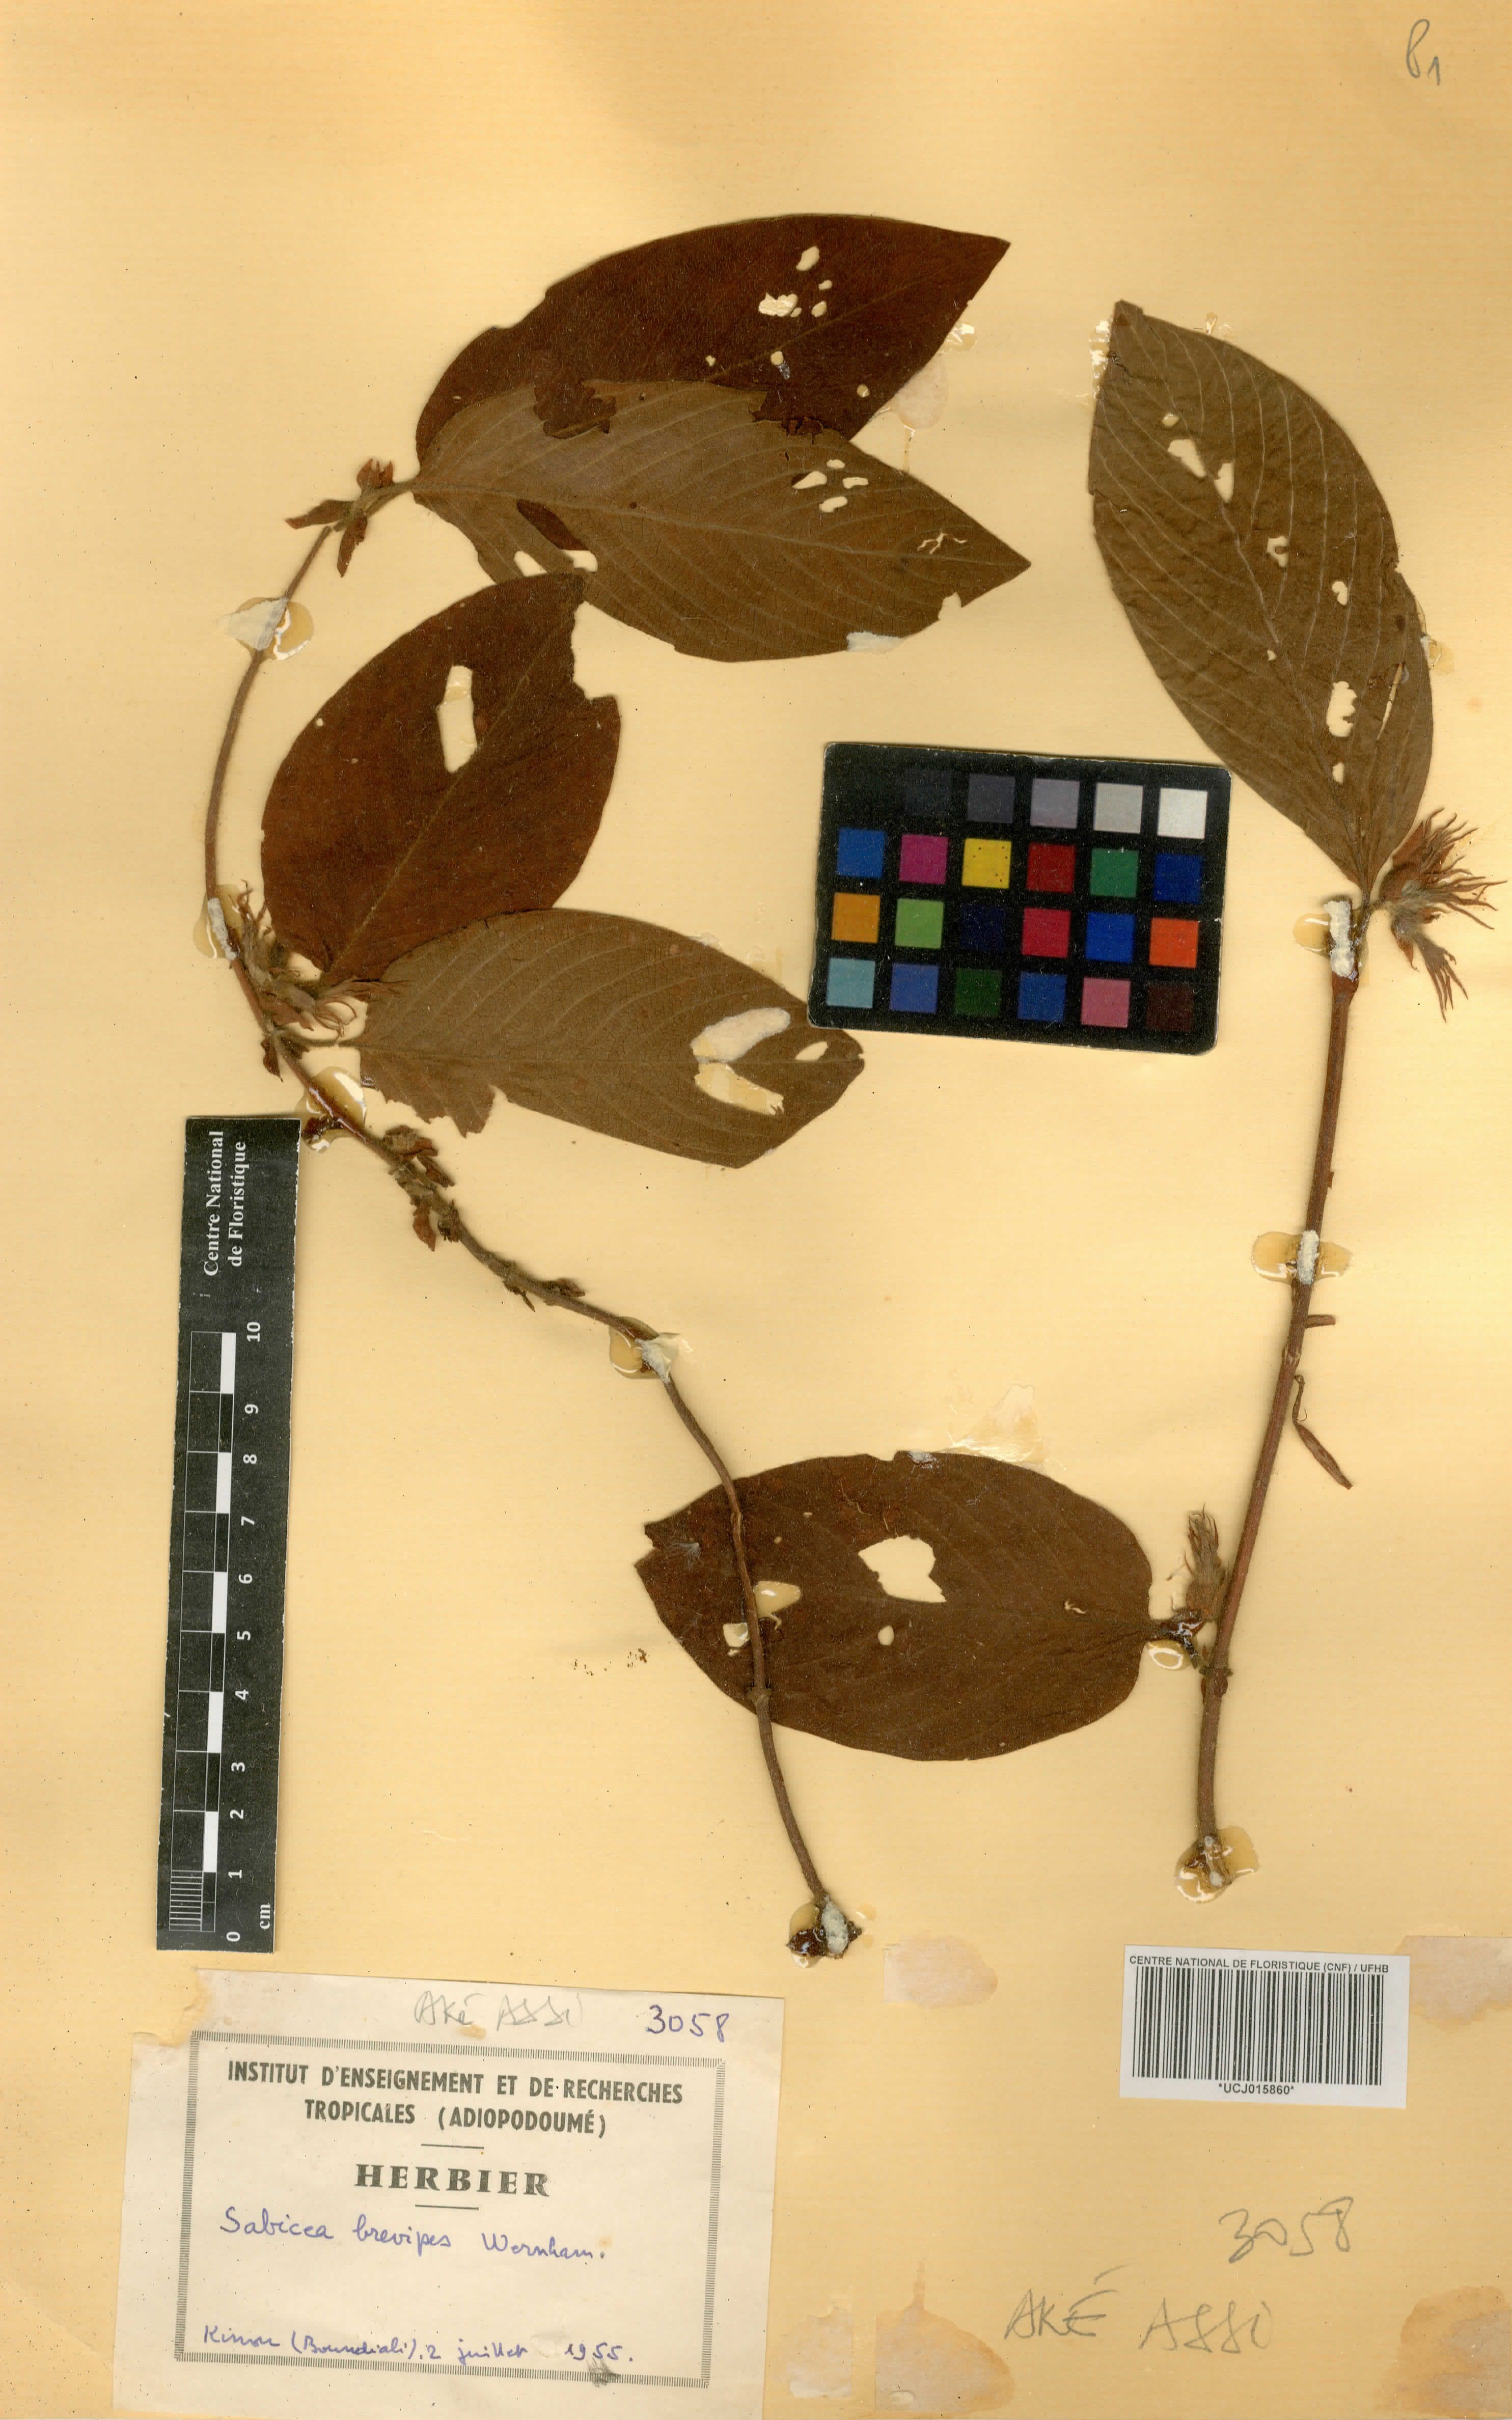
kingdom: Plantae
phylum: Tracheophyta
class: Magnoliopsida
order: Gentianales
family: Rubiaceae
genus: Sabicea
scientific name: Sabicea brevipes
